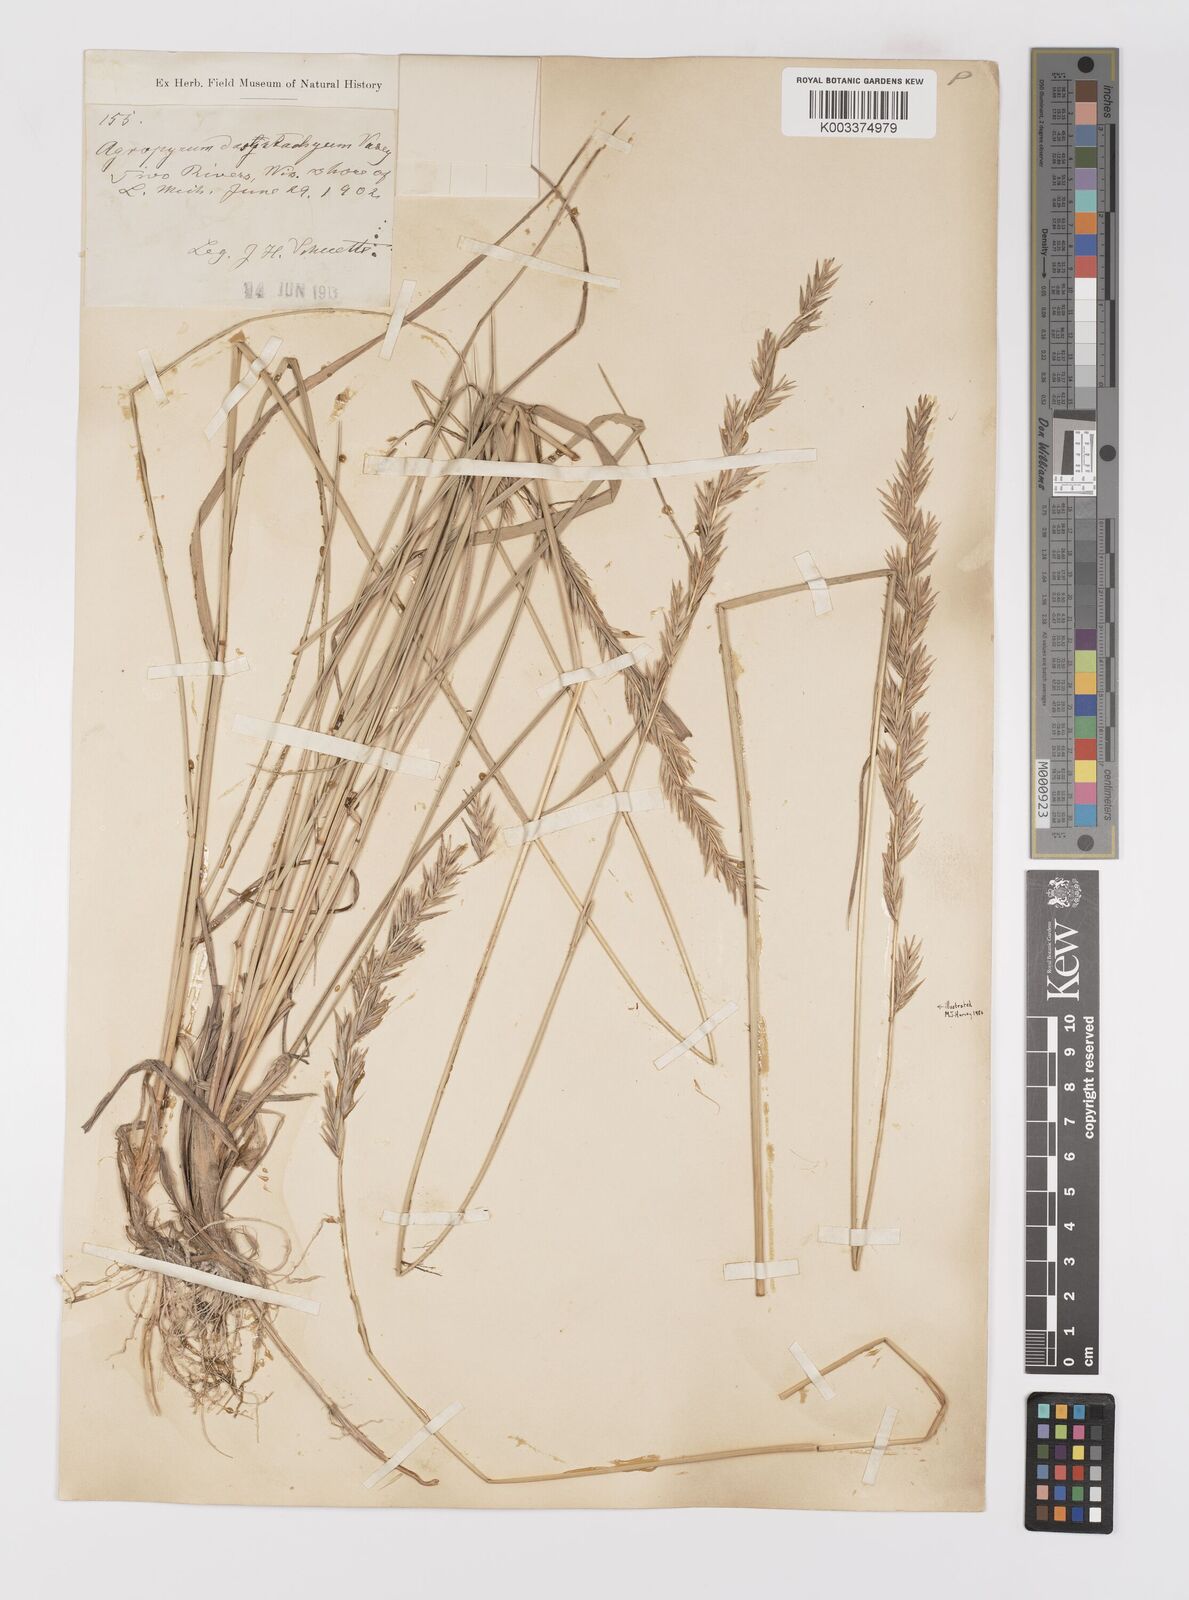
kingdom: Plantae
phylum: Tracheophyta
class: Liliopsida
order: Poales
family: Poaceae
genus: Elymus
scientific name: Elymus lanceolatus
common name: Thick-spike wheatgrass
